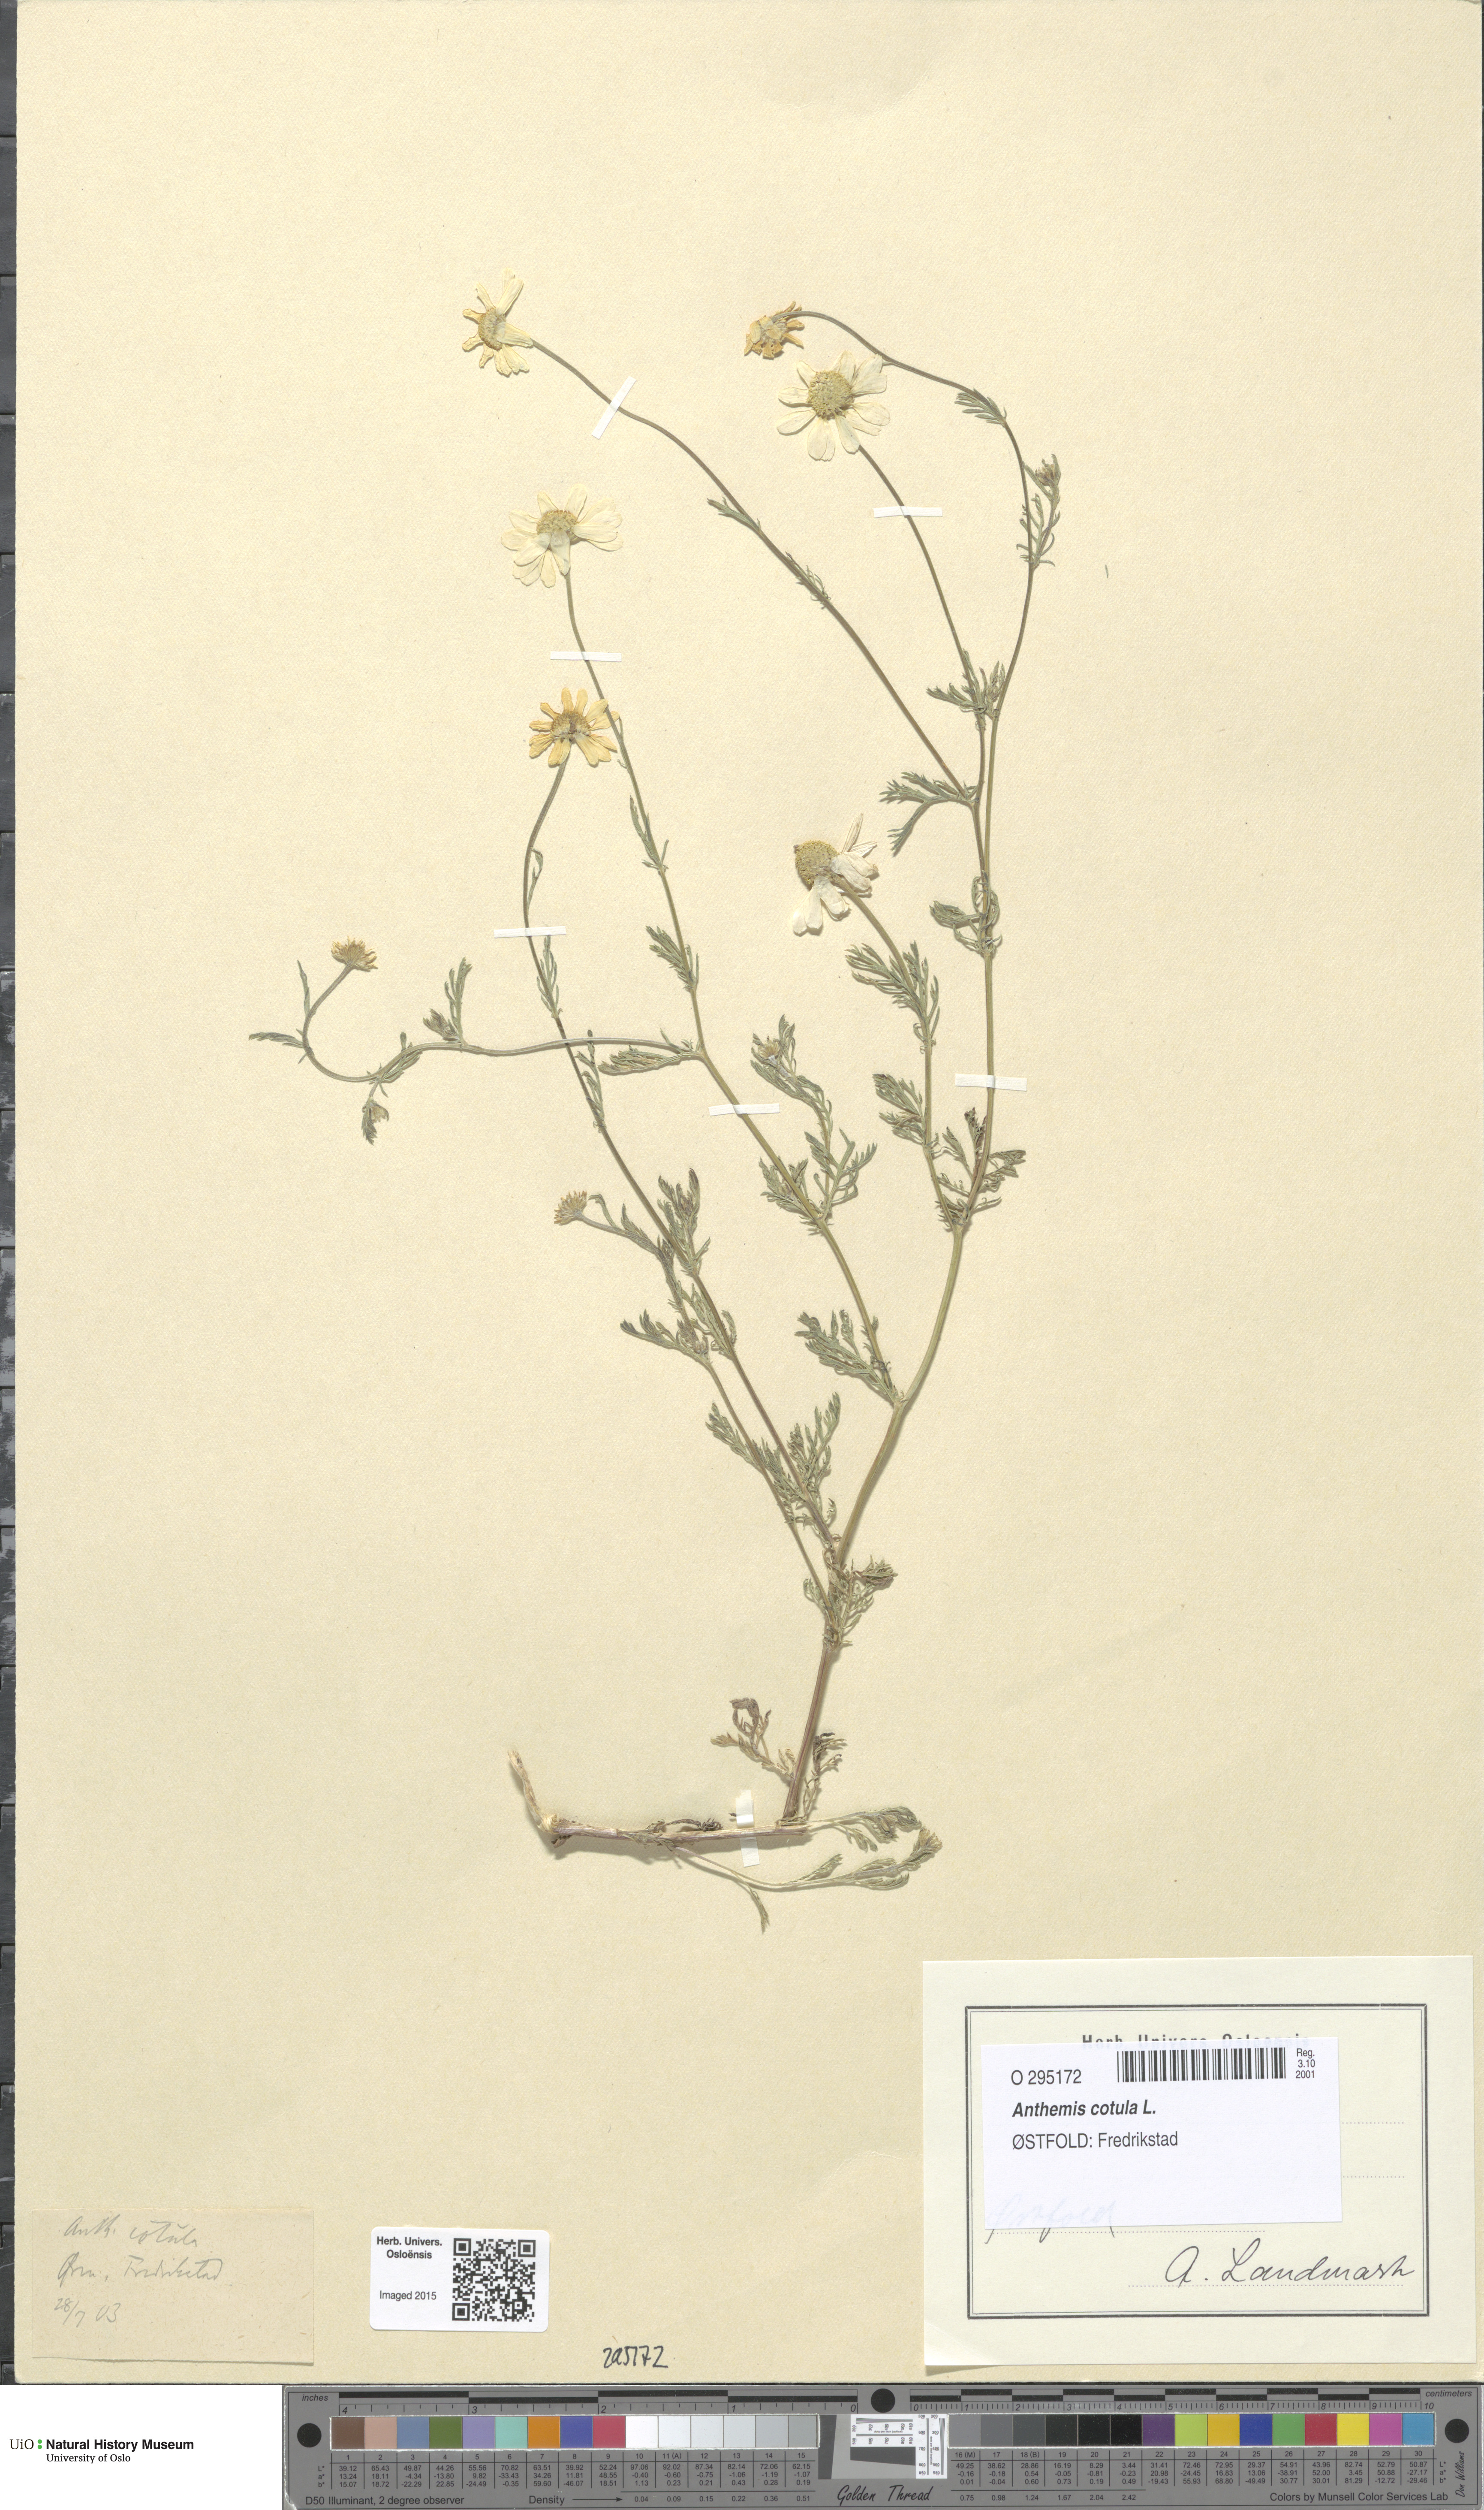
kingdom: Plantae
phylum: Tracheophyta
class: Magnoliopsida
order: Asterales
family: Asteraceae
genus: Anthemis
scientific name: Anthemis cotula
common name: Stinking chamomile
